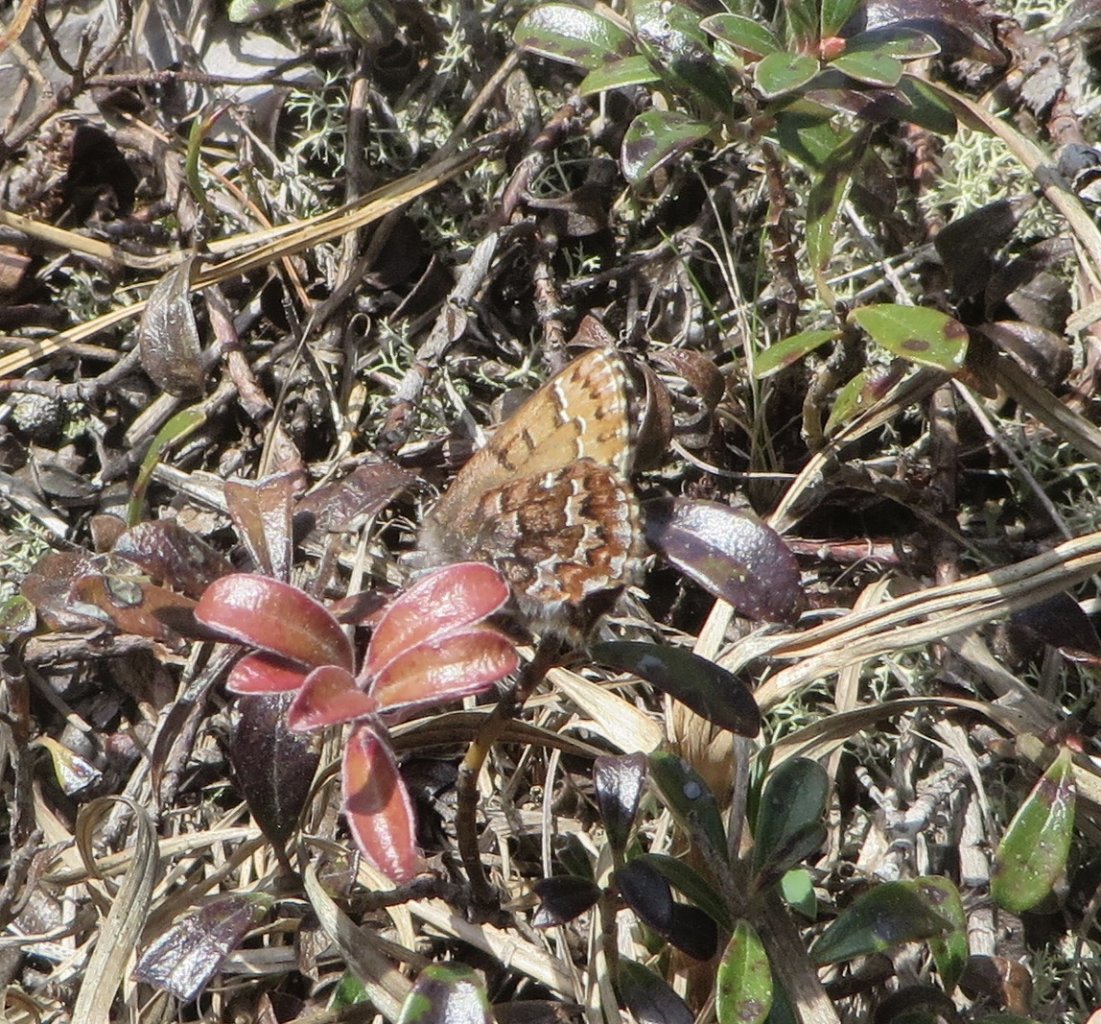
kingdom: Animalia
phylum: Arthropoda
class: Insecta
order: Lepidoptera
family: Lycaenidae
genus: Incisalia
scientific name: Incisalia niphon
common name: Eastern Pine Elfin
